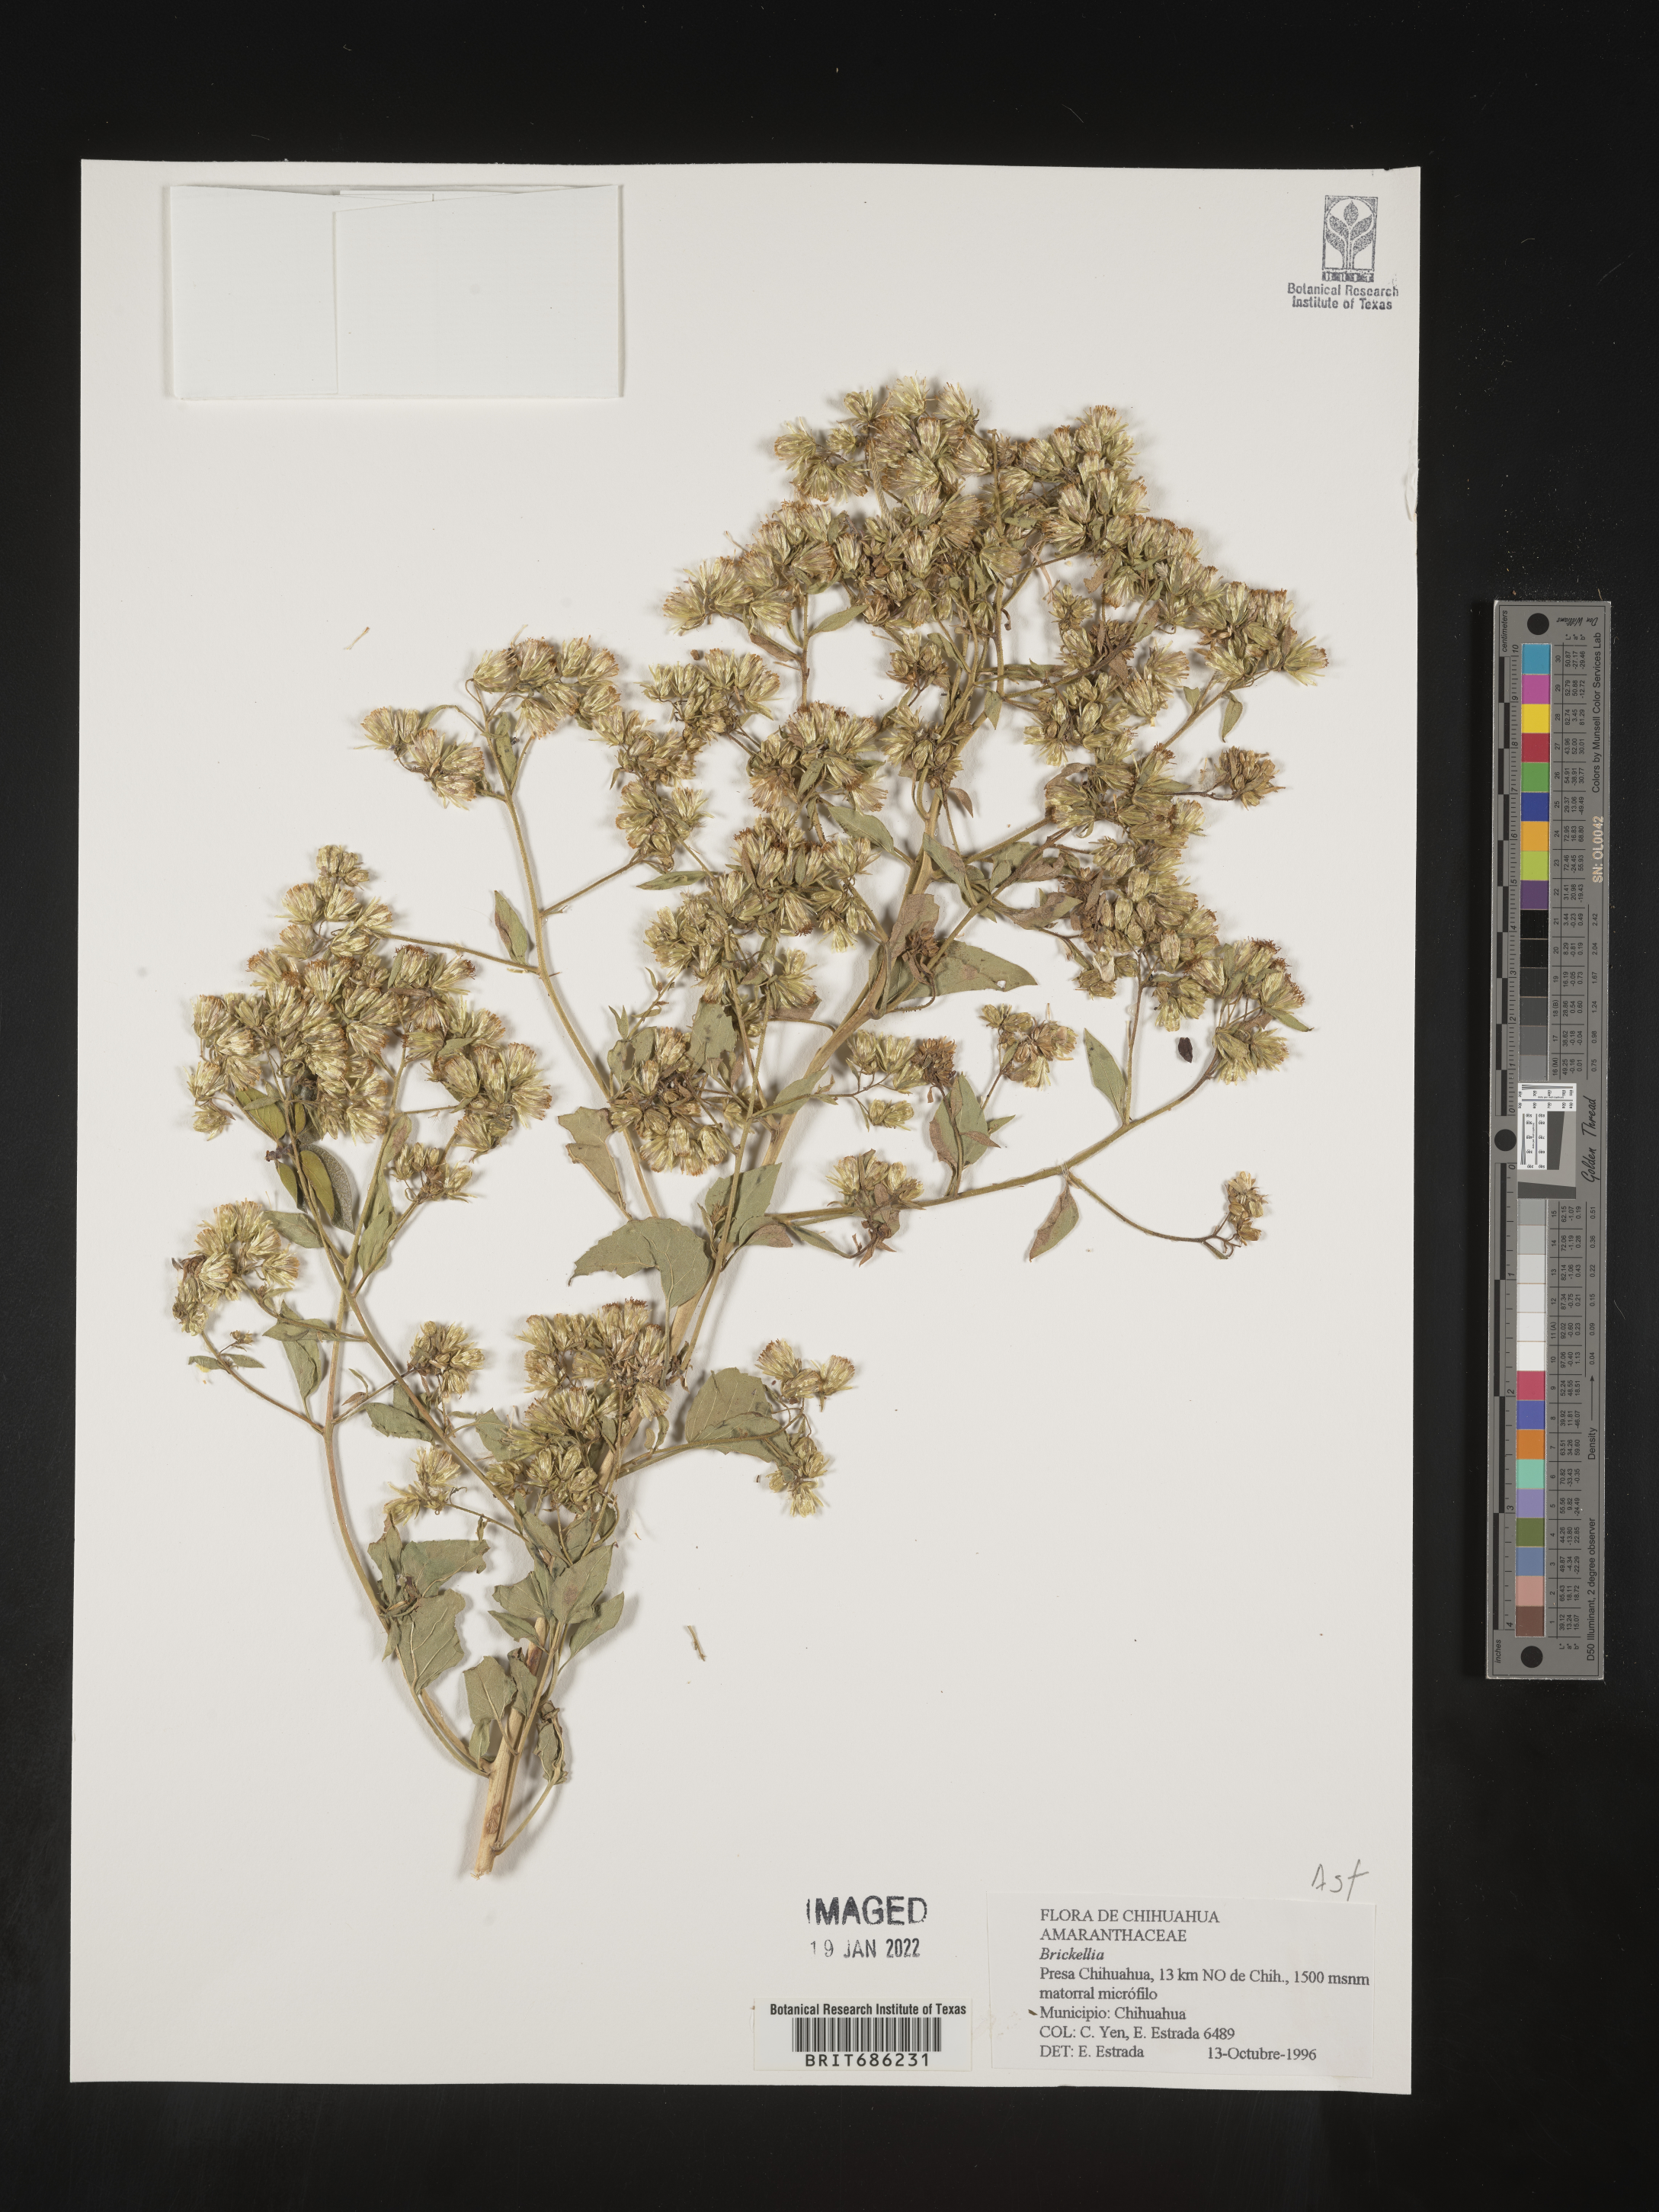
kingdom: Plantae
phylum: Tracheophyta
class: Magnoliopsida
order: Asterales
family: Asteraceae
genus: Brickellia
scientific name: Brickellia
